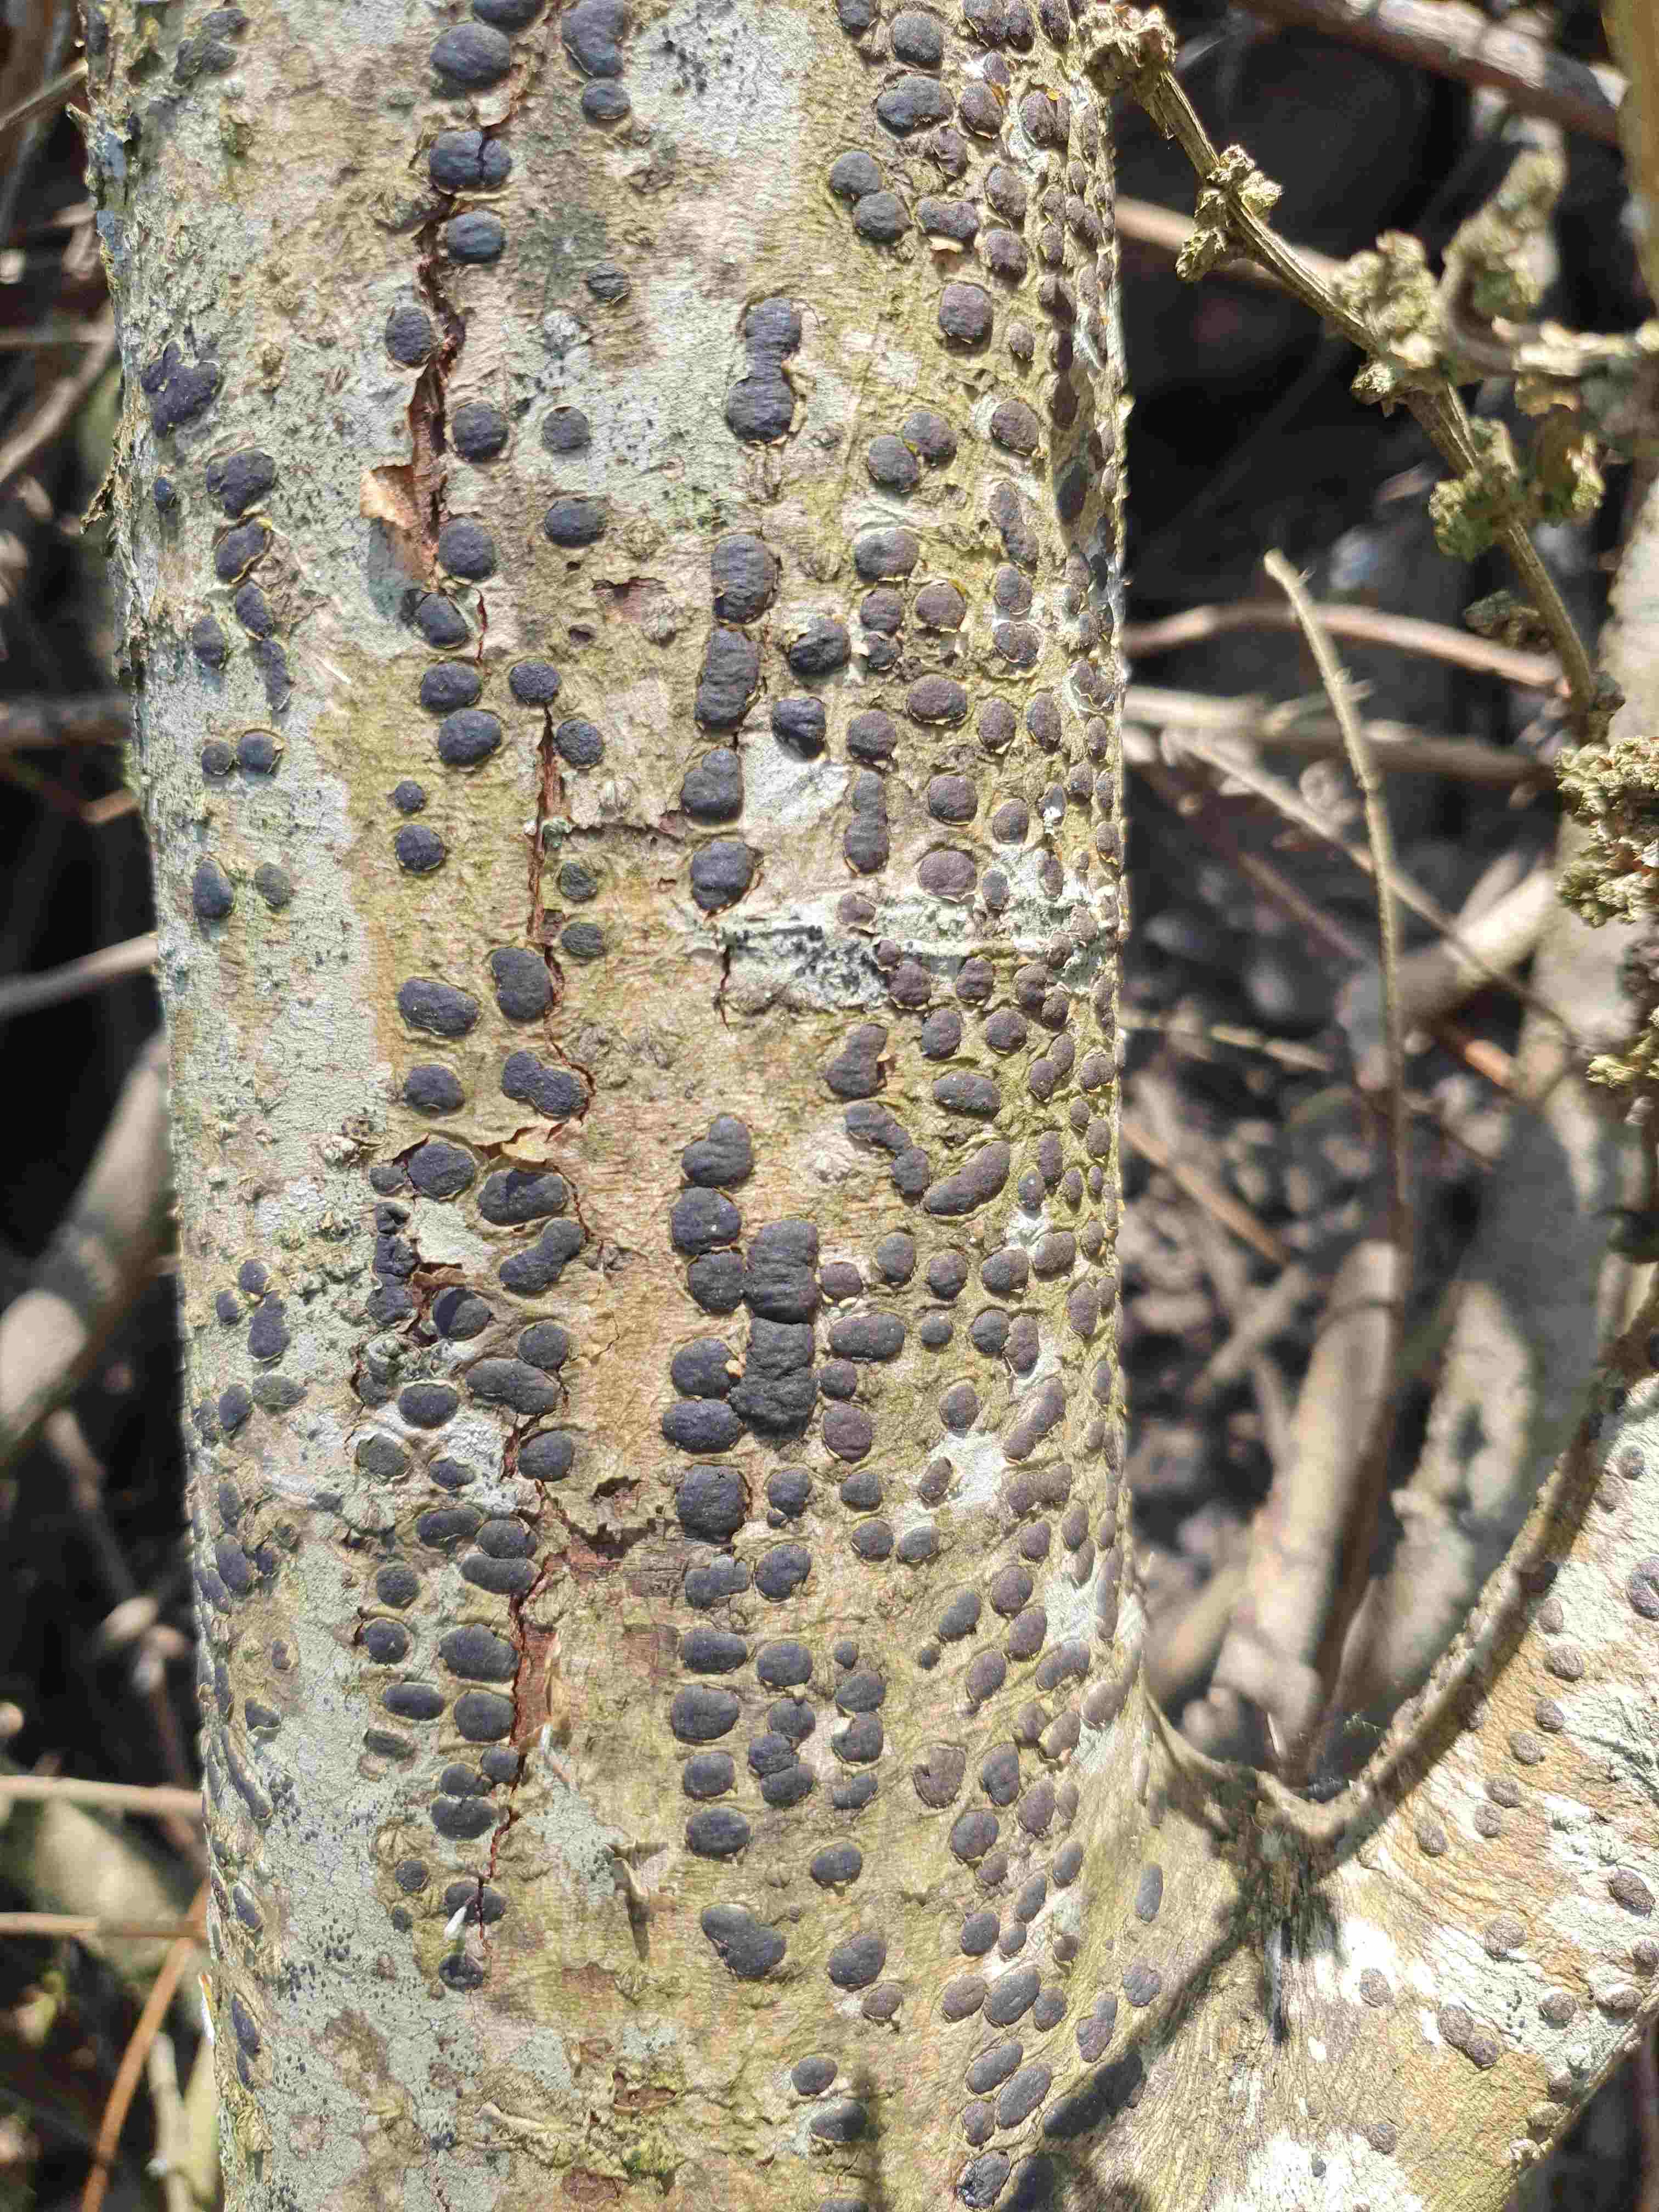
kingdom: Fungi
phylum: Ascomycota
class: Sordariomycetes
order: Xylariales
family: Diatrypaceae
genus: Diatrype
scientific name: Diatrype bullata
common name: pile-kulskorpe
